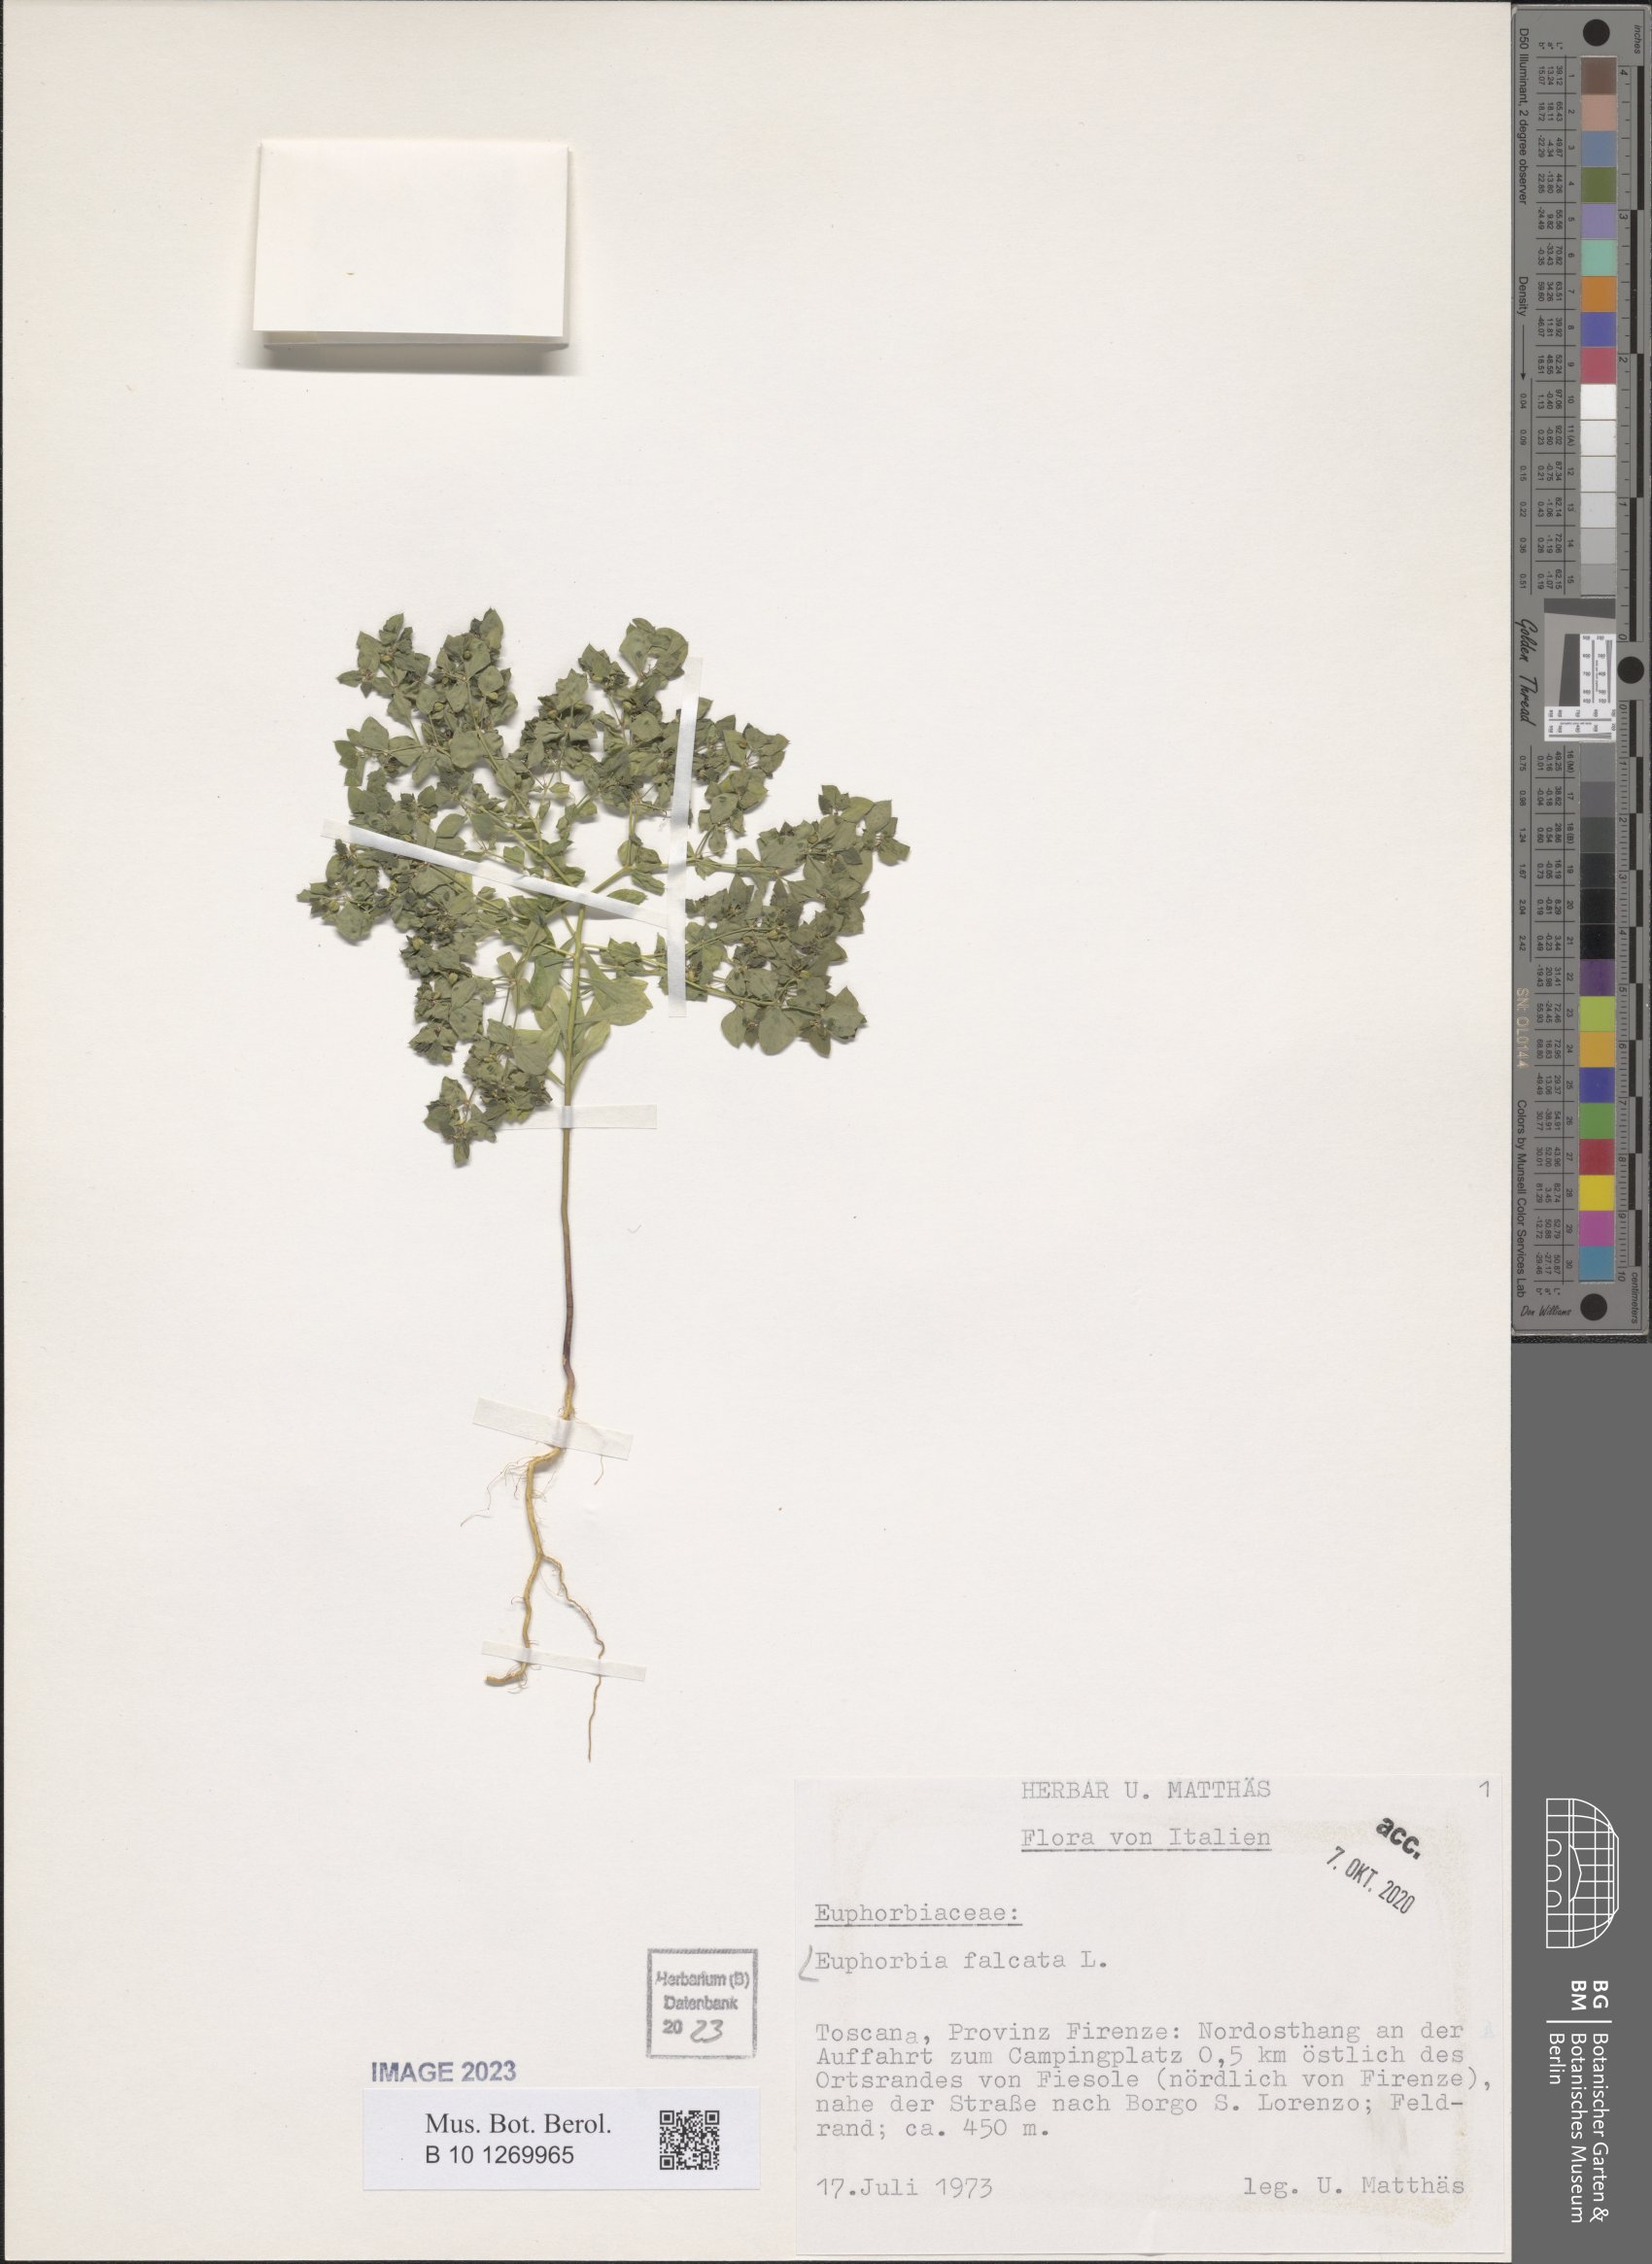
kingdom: Plantae
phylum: Tracheophyta
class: Magnoliopsida
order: Malpighiales
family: Euphorbiaceae
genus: Euphorbia
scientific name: Euphorbia falcata
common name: Sickle spurge
